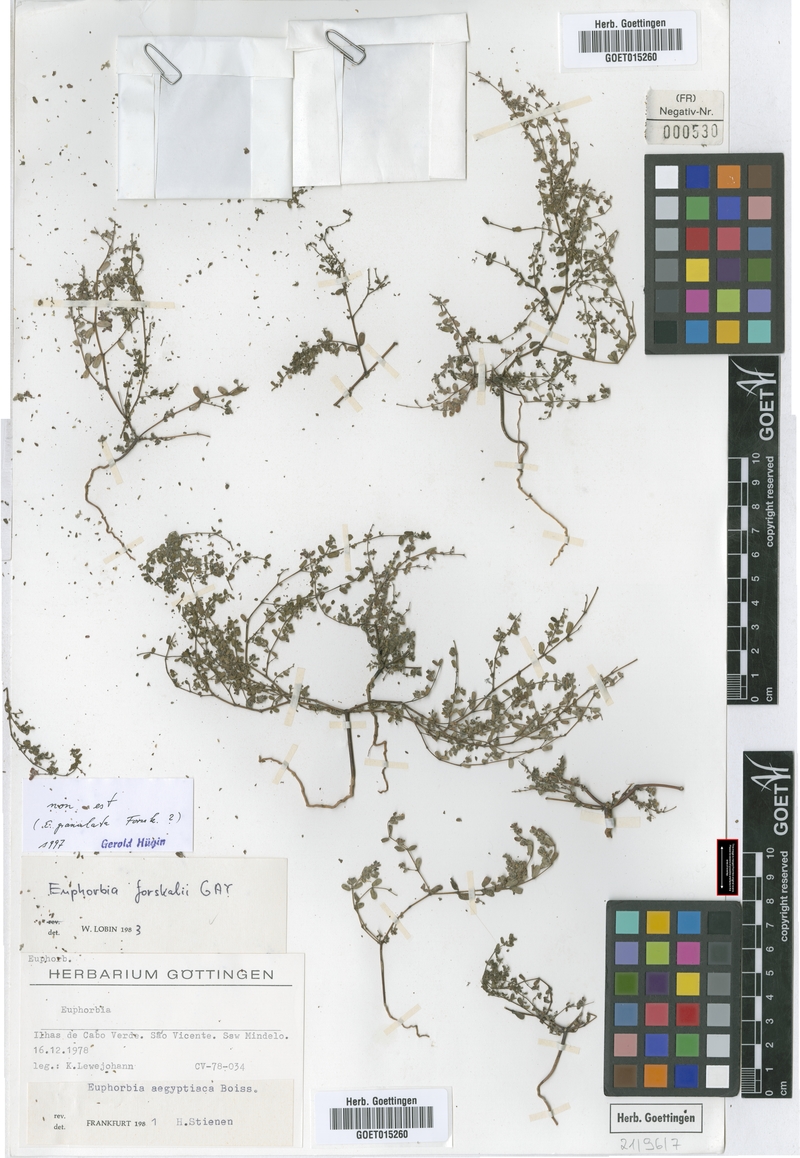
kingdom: Plantae
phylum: Tracheophyta
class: Magnoliopsida
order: Malpighiales
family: Euphorbiaceae
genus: Euphorbia
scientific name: Euphorbia granulata
